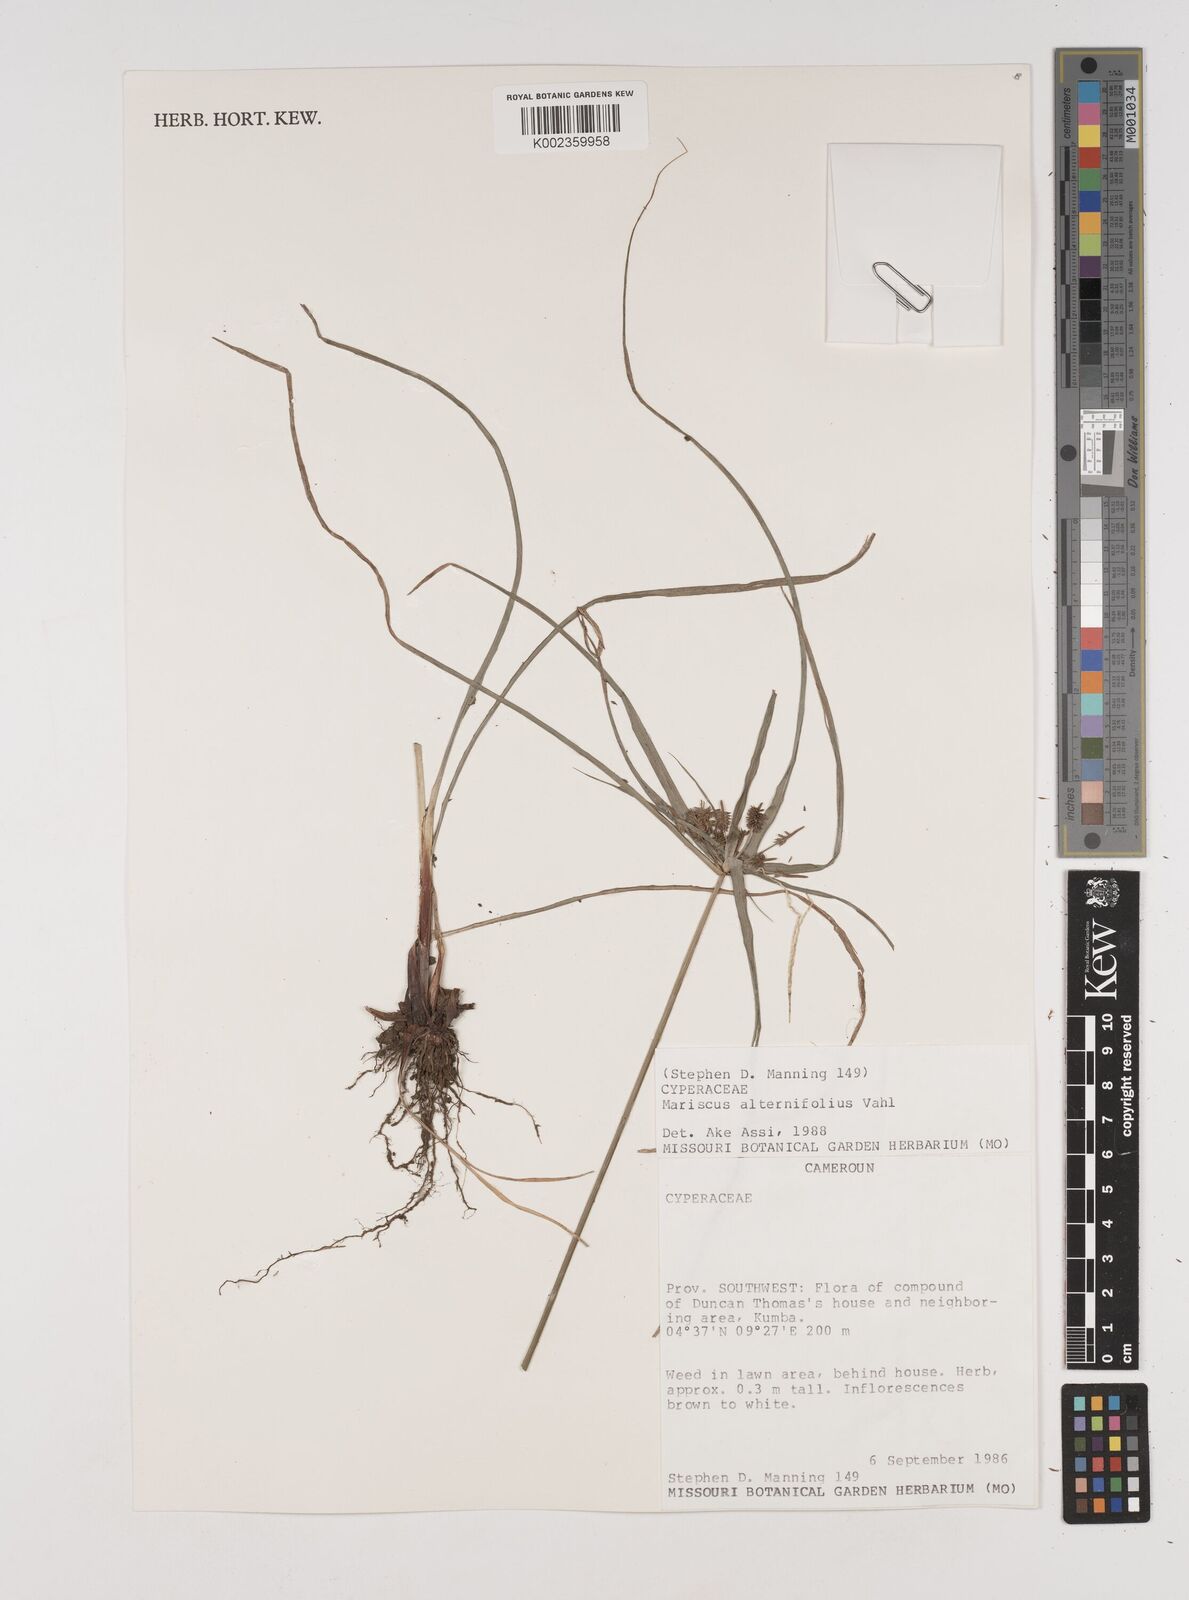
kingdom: Plantae
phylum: Tracheophyta
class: Liliopsida
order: Poales
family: Cyperaceae
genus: Cyperus
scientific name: Cyperus cyperoides
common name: Pacific island flat sedge
